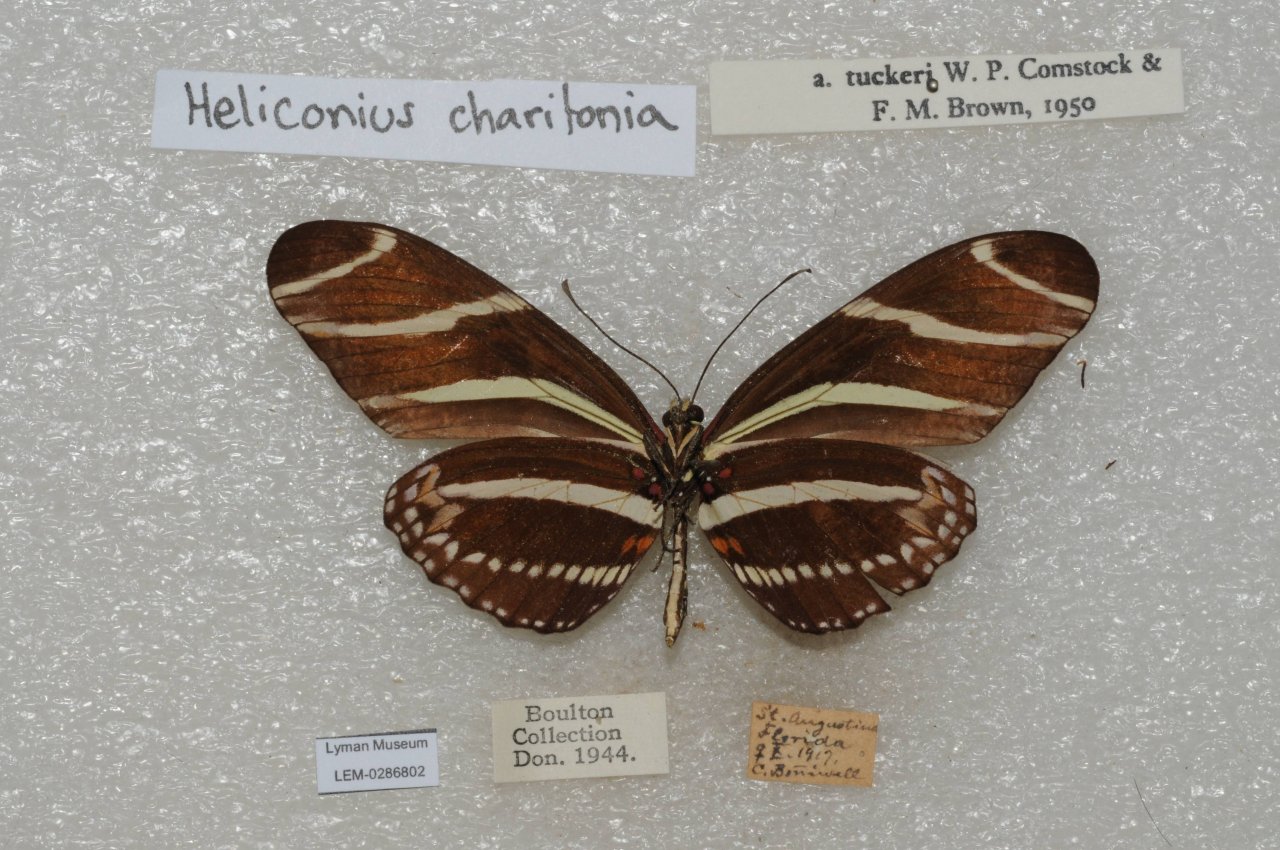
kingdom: Animalia
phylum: Arthropoda
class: Insecta
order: Lepidoptera
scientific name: Lepidoptera
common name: Butterflies
